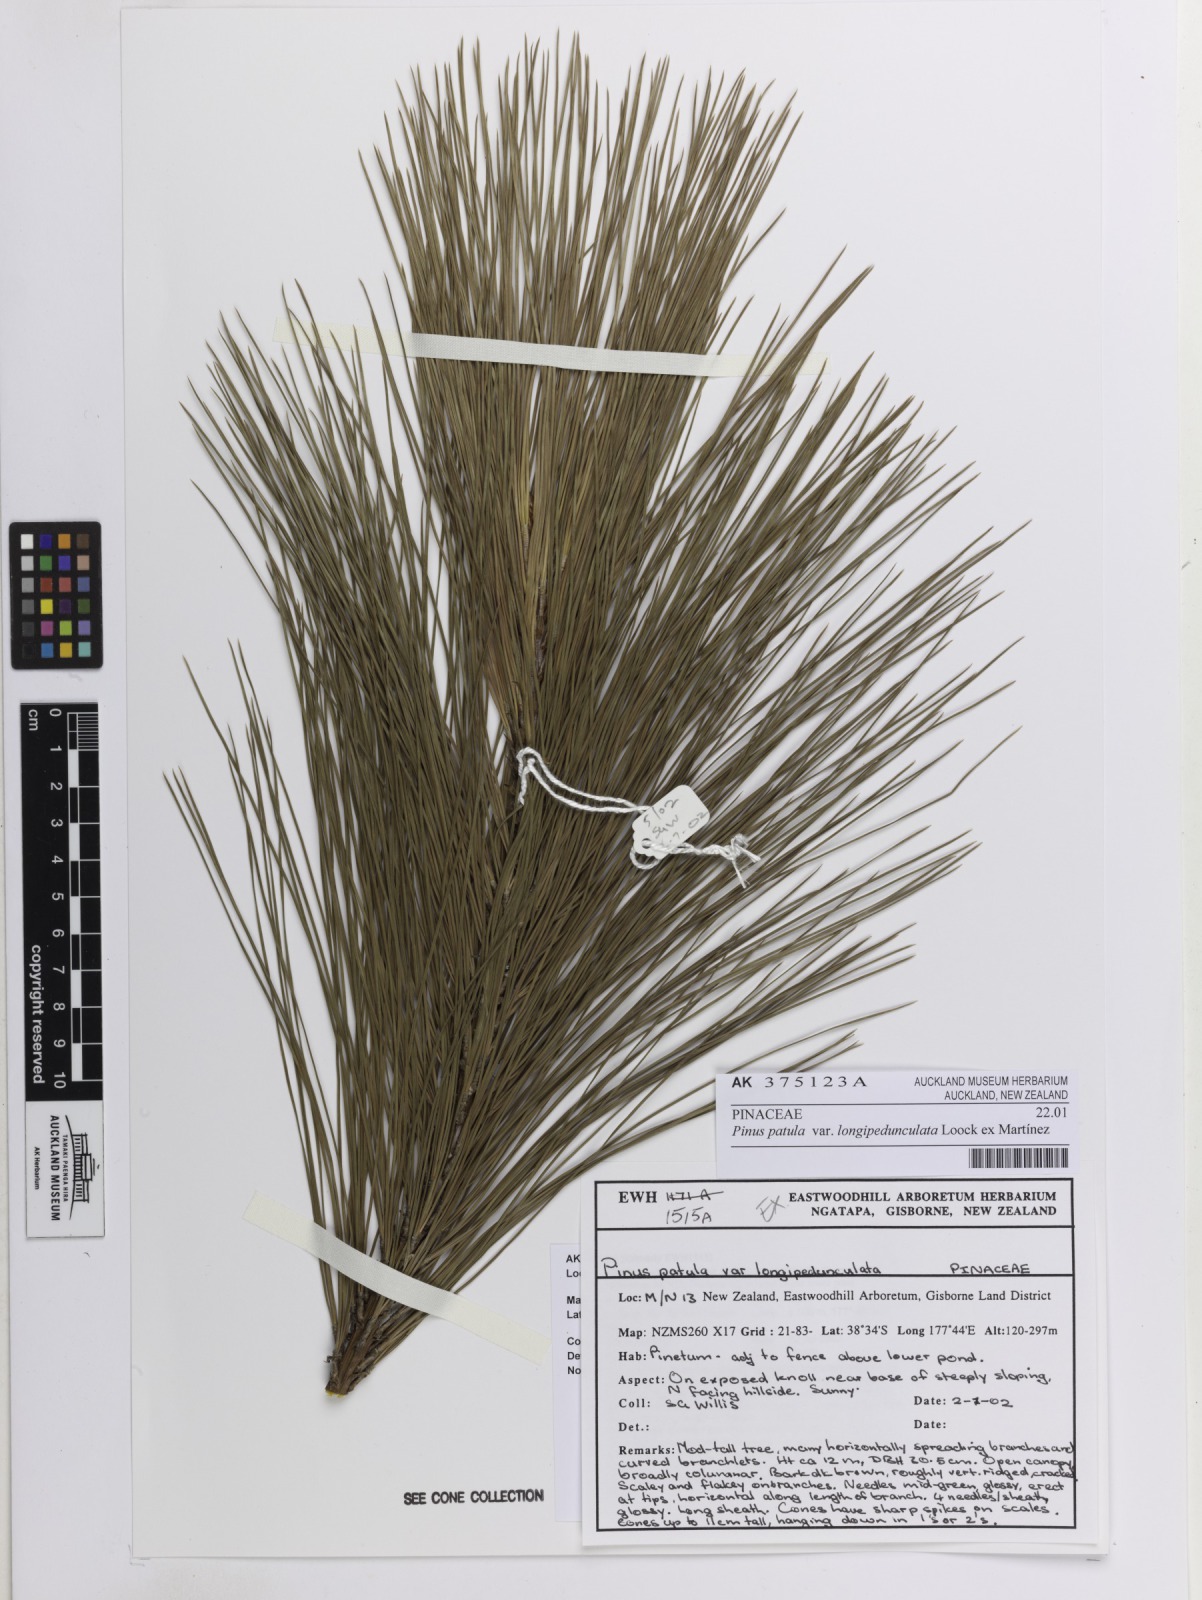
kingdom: Plantae
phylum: Tracheophyta
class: Pinopsida
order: Pinales
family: Pinaceae
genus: Pinus
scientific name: Pinus patula
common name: Mexican weeping pine
